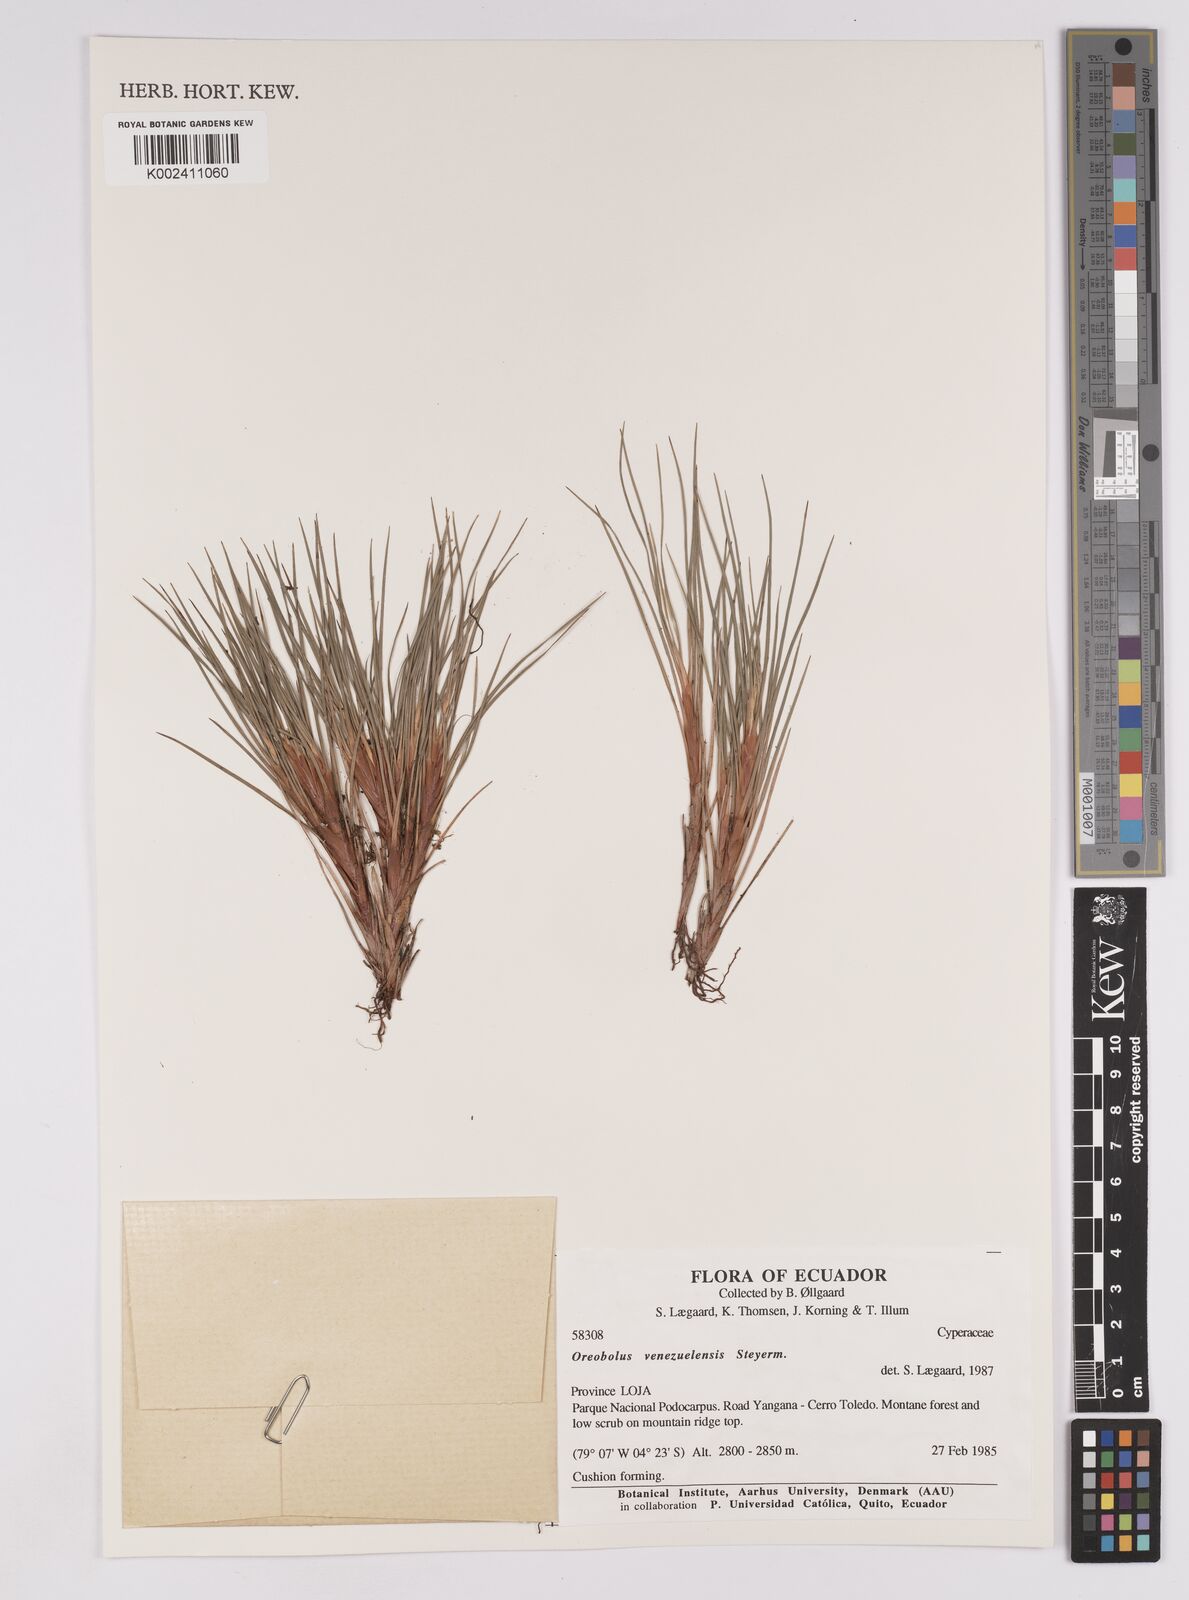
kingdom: Plantae
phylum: Tracheophyta
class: Liliopsida
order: Poales
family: Cyperaceae
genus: Oreobolus
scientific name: Oreobolus venezuelensis
